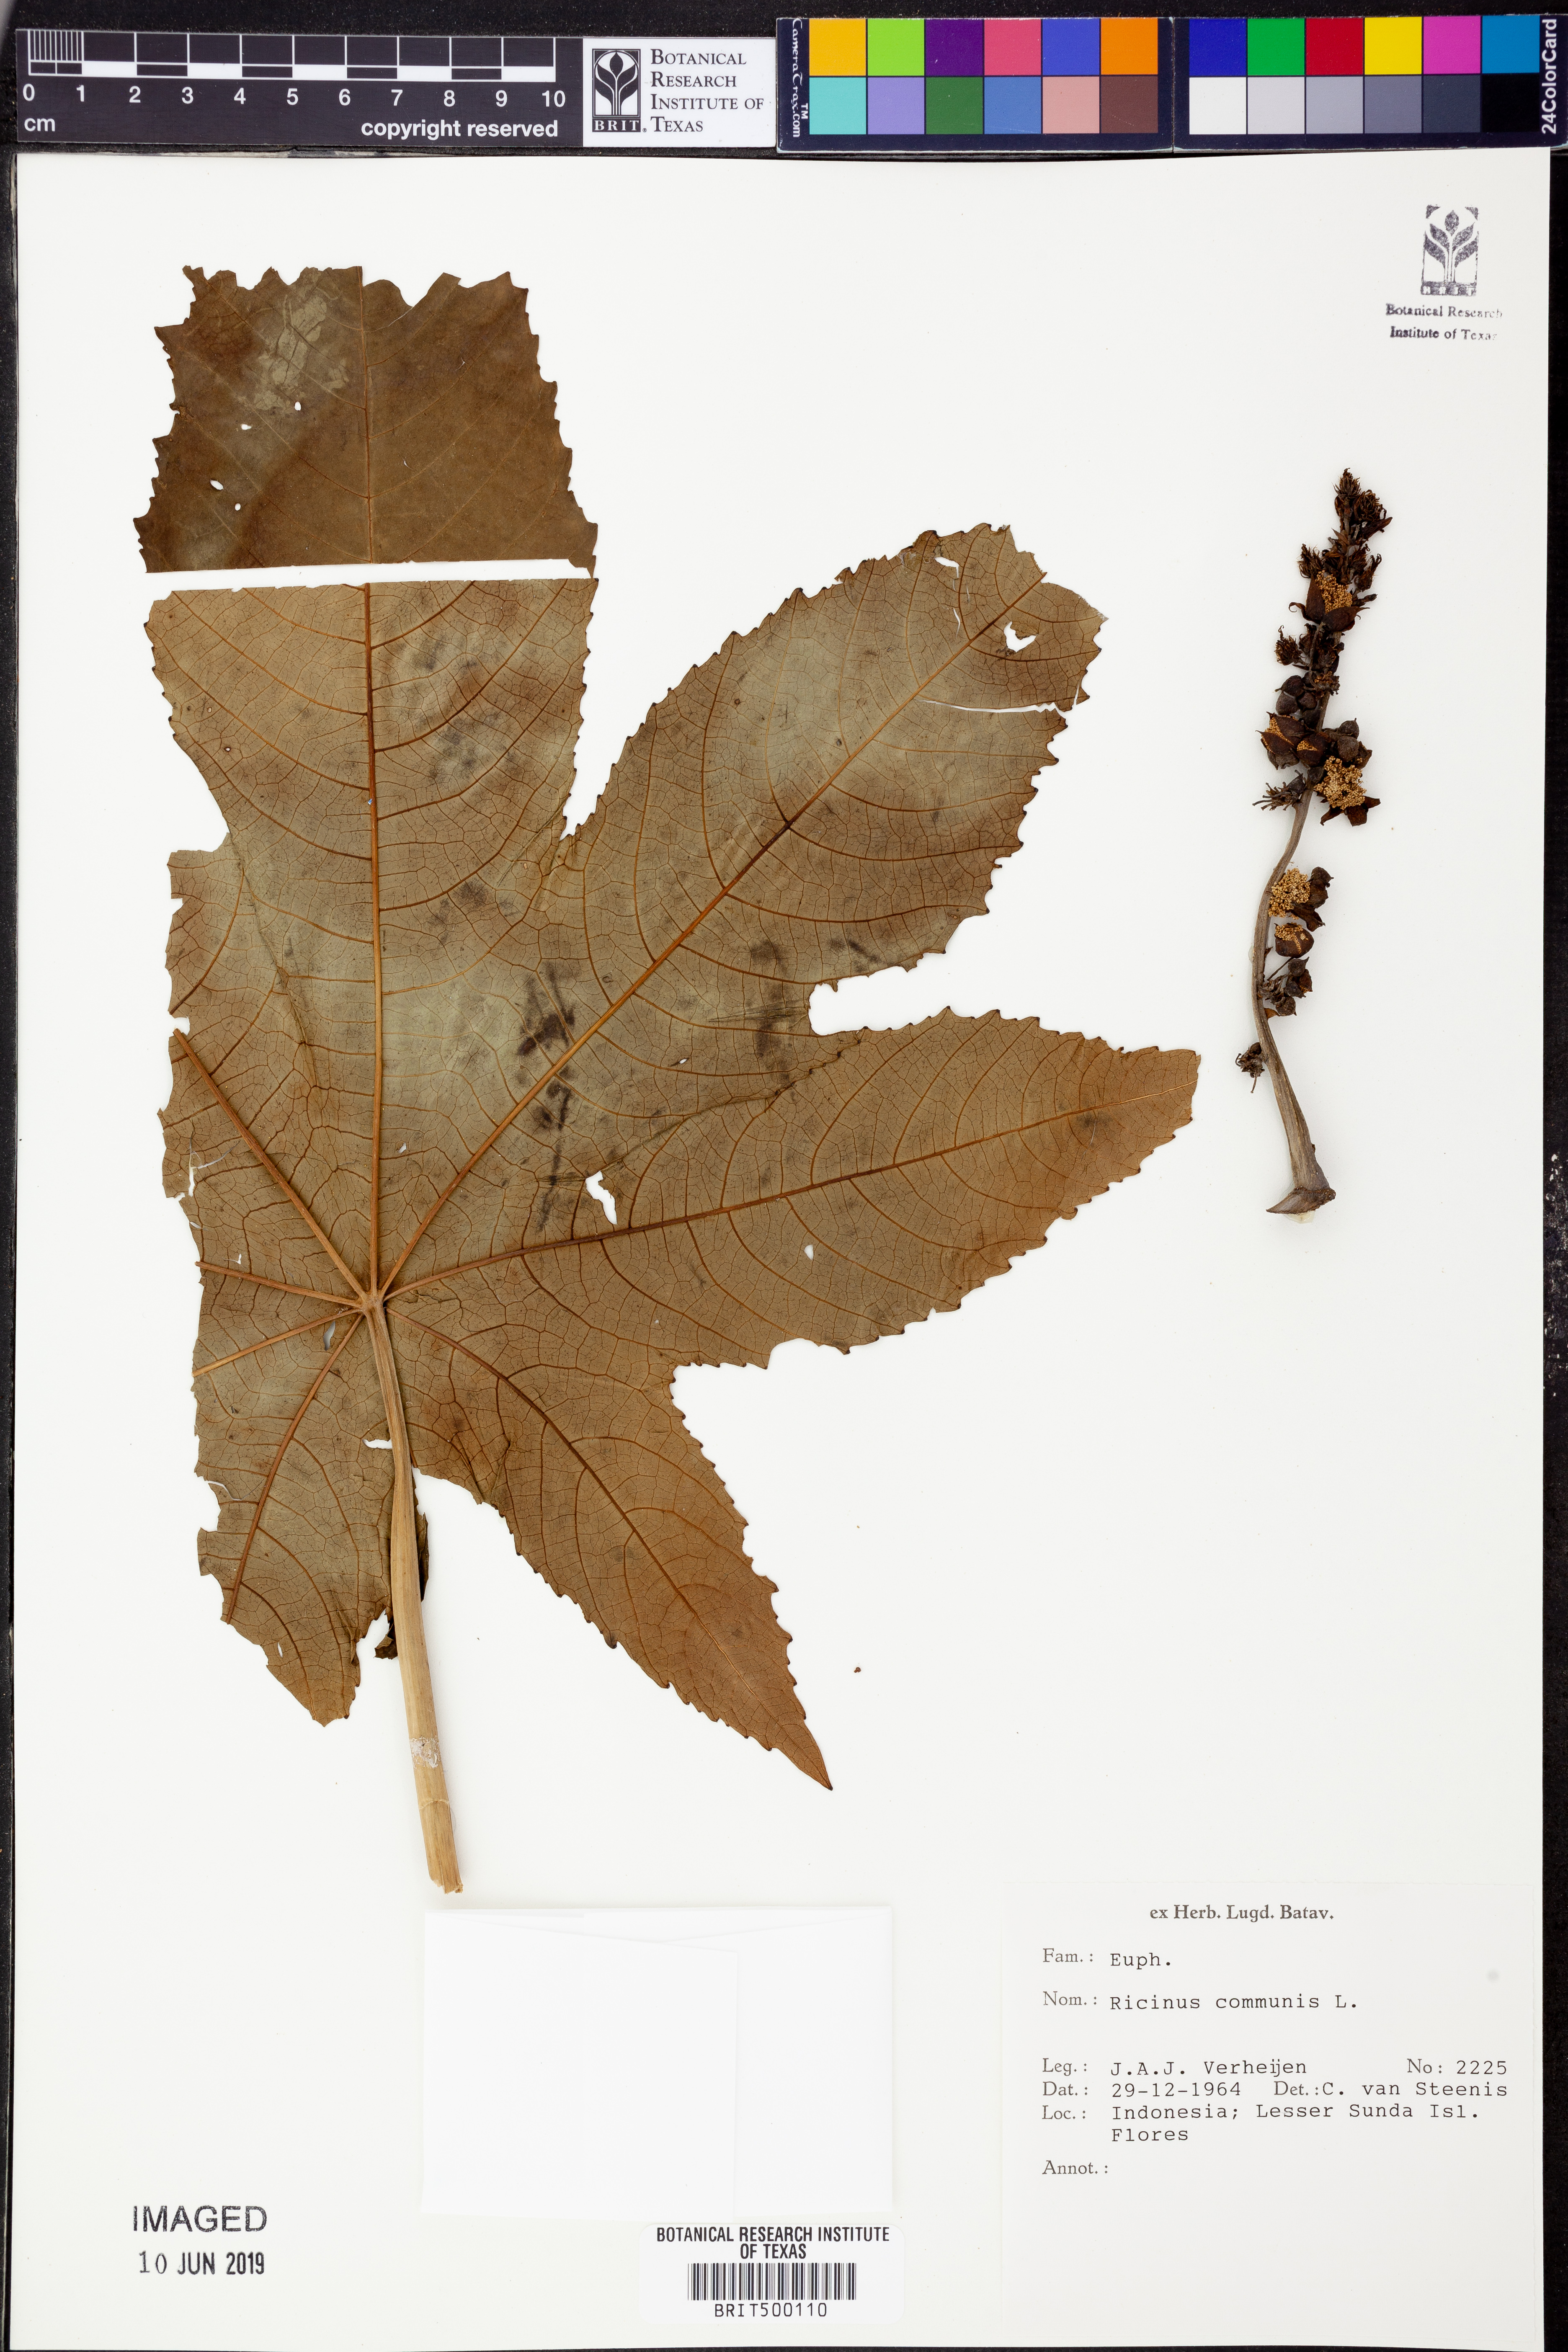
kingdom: Plantae
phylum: Tracheophyta
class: Magnoliopsida
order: Malpighiales
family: Euphorbiaceae
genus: Ricinus
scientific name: Ricinus communis
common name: Castor-oil-plant
